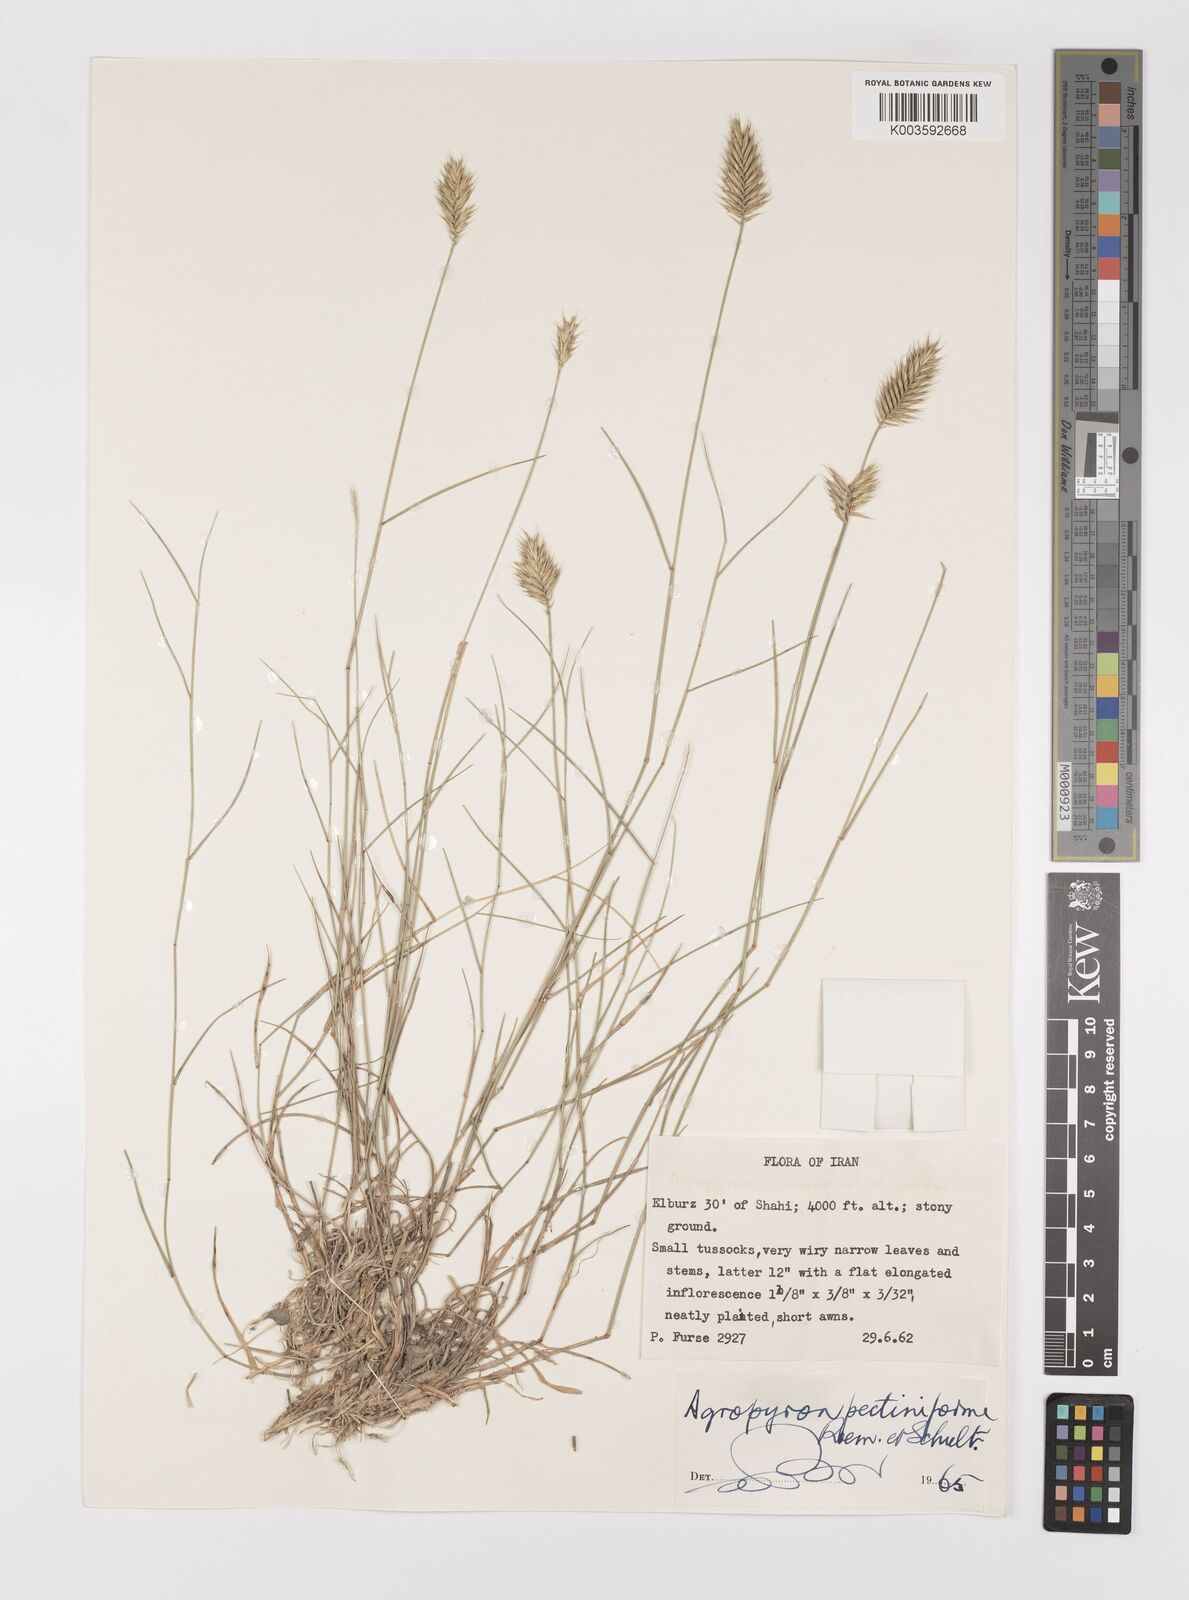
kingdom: Plantae
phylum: Tracheophyta
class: Liliopsida
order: Poales
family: Poaceae
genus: Agropyron
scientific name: Agropyron
